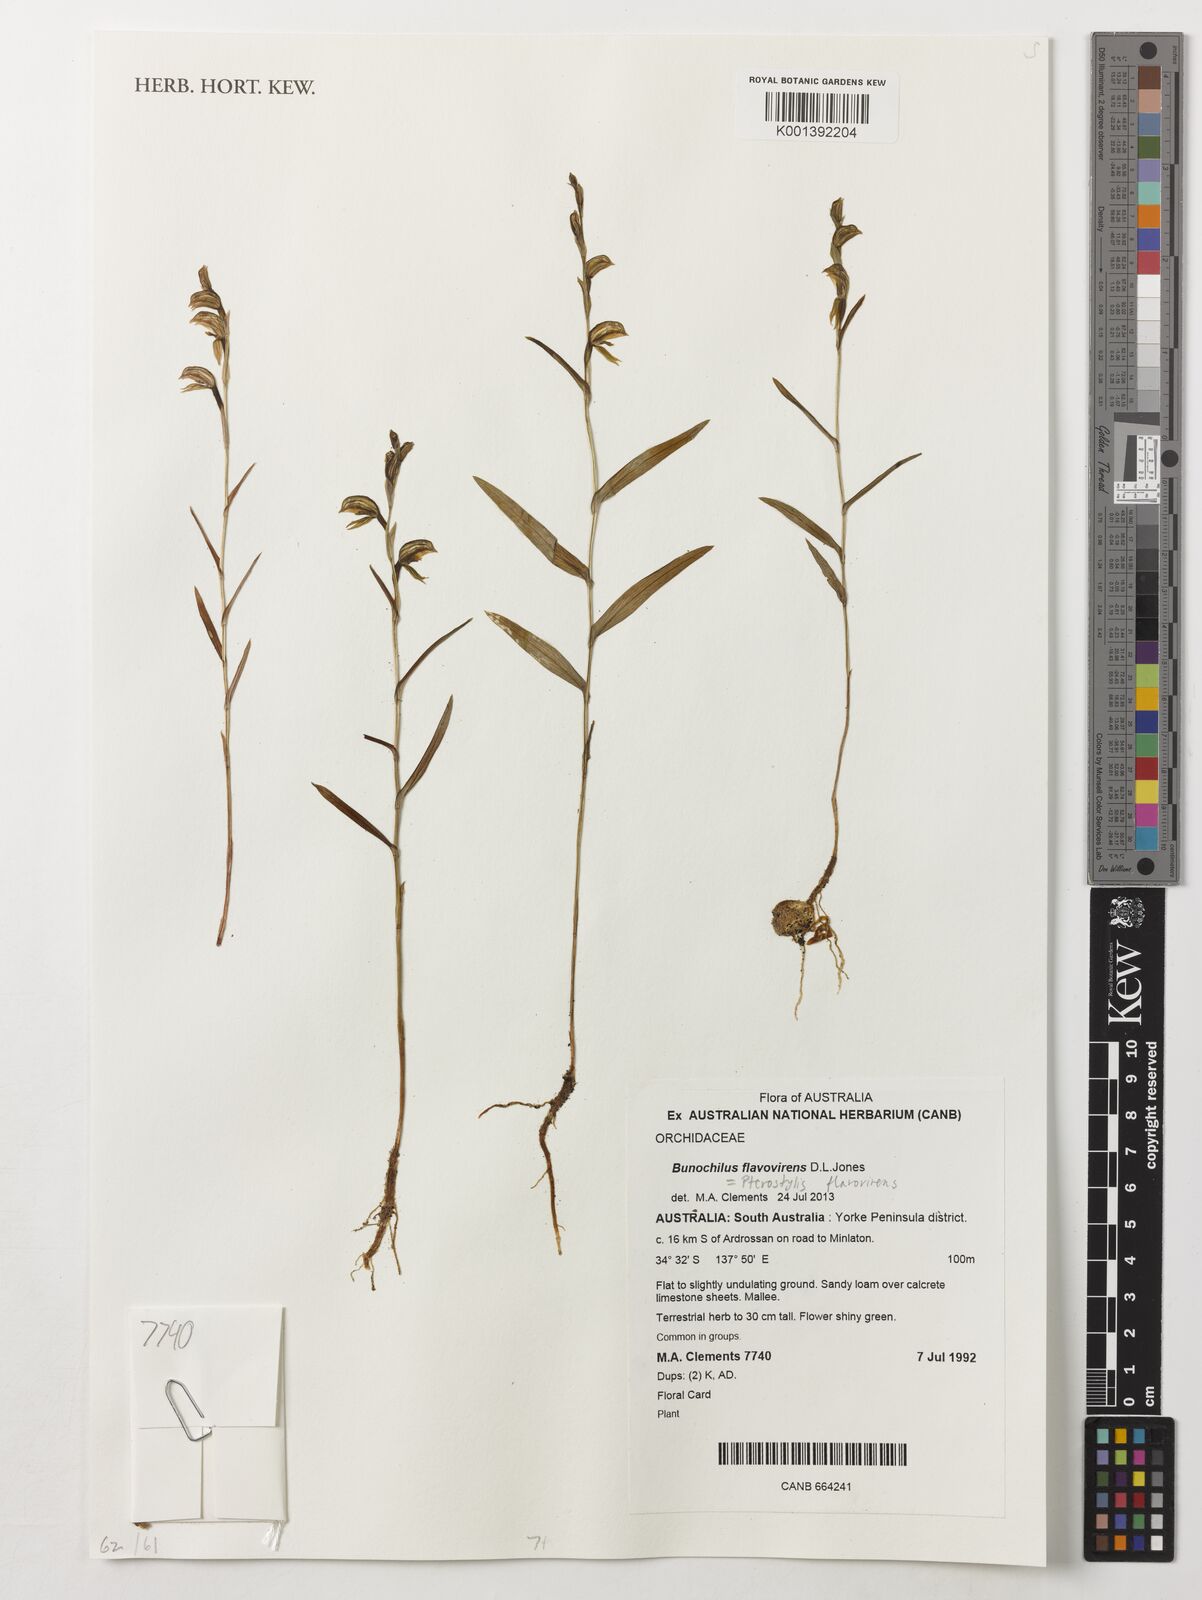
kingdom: Plantae
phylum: Tracheophyta
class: Liliopsida
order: Asparagales
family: Orchidaceae
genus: Pterostylis
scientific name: Pterostylis flavovirens
